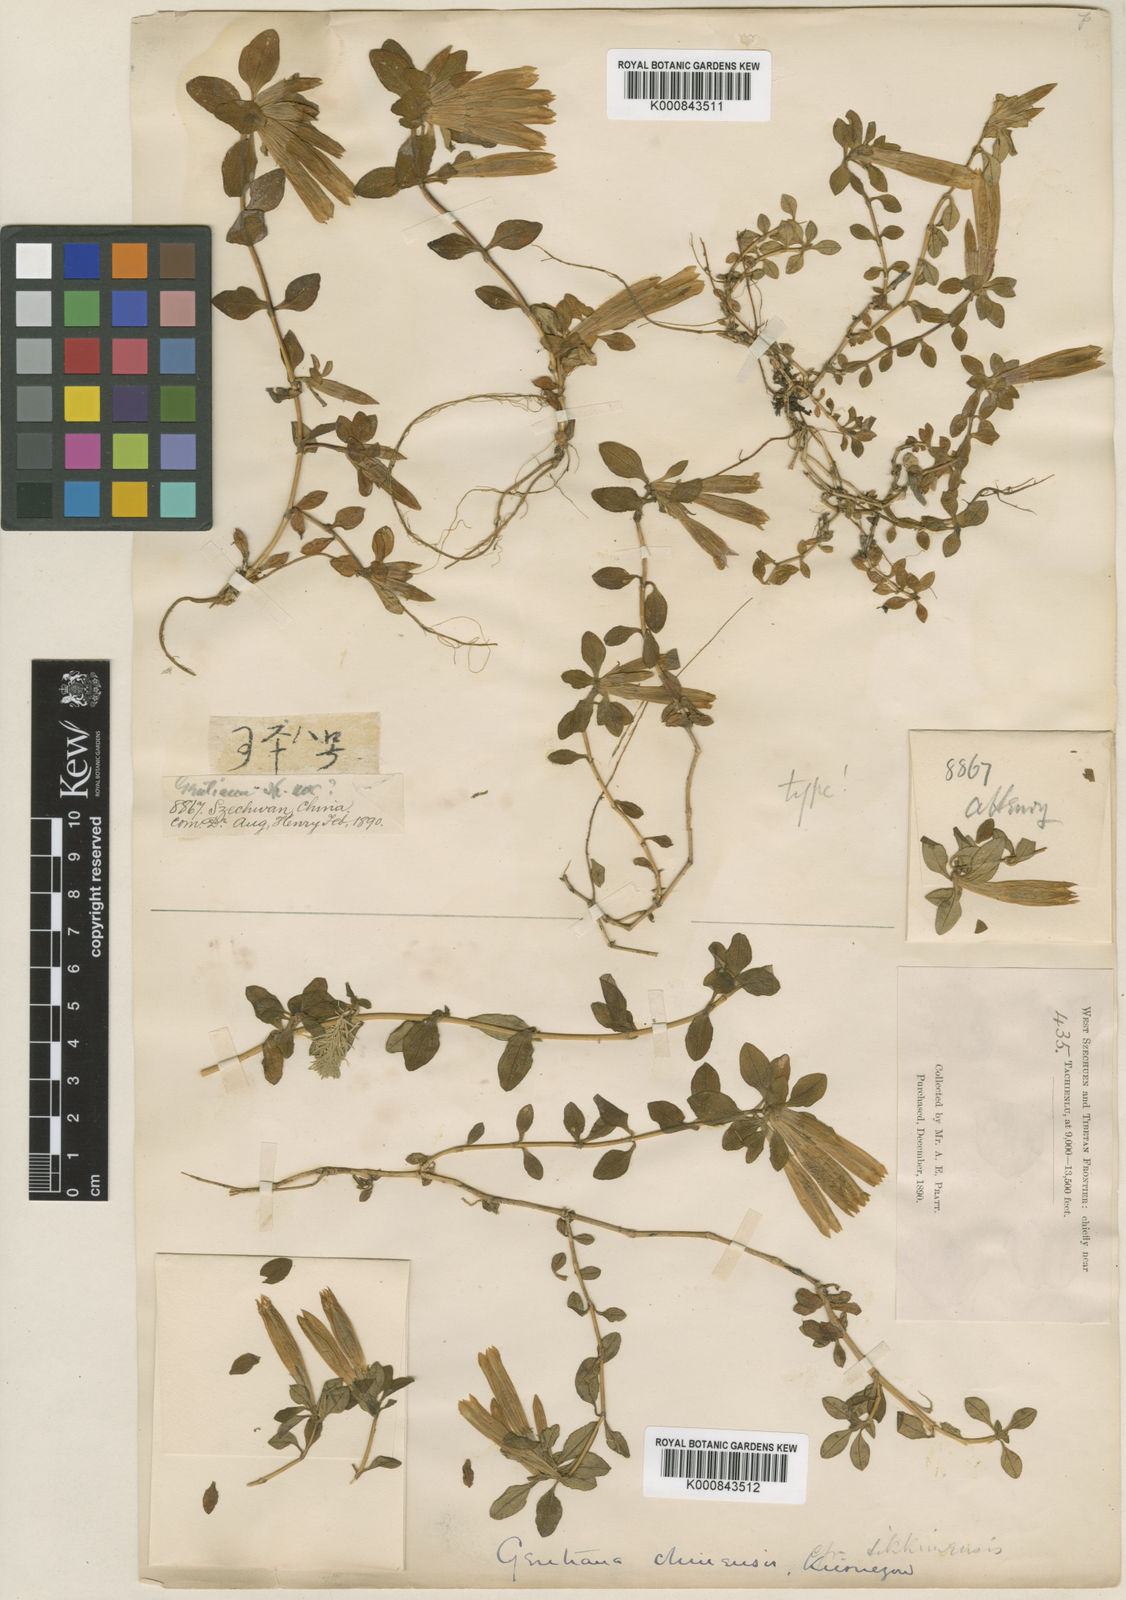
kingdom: Plantae
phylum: Tracheophyta
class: Magnoliopsida
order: Gentianales
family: Gentianaceae
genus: Gentiana
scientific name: Gentiana chinensis
